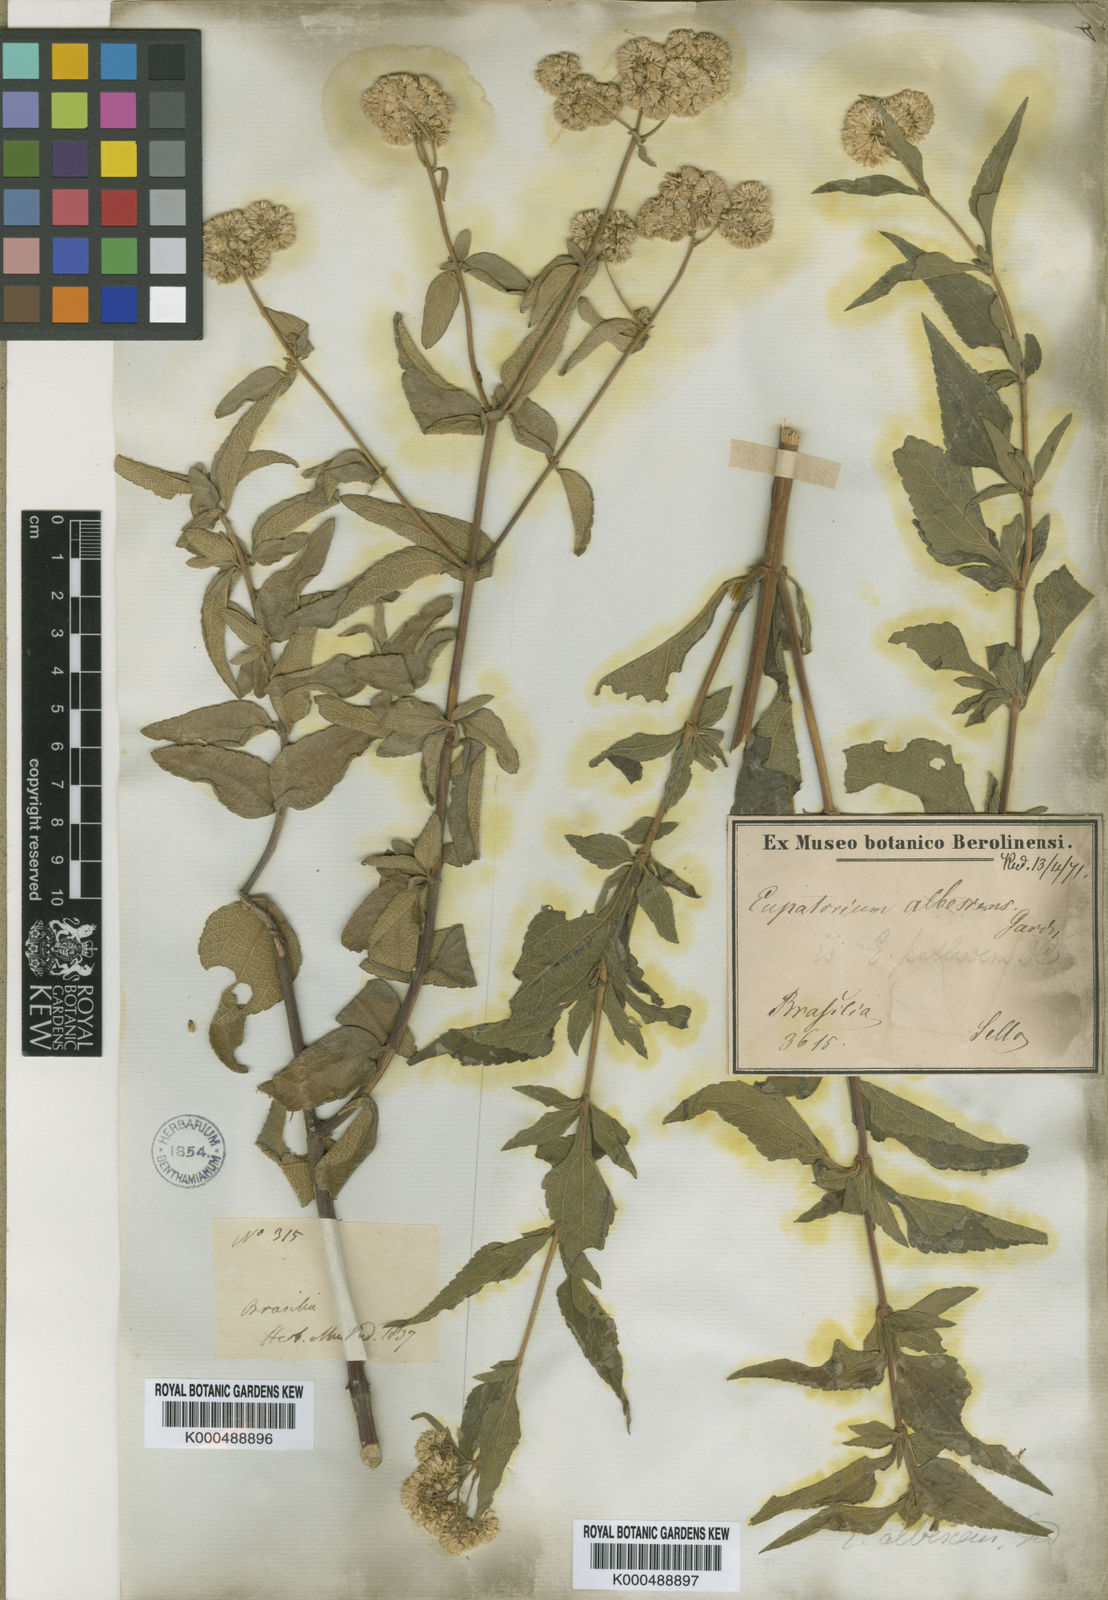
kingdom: Plantae
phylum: Tracheophyta
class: Magnoliopsida
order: Asterales
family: Asteraceae
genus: Austroeupatorium
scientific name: Austroeupatorium albescens
